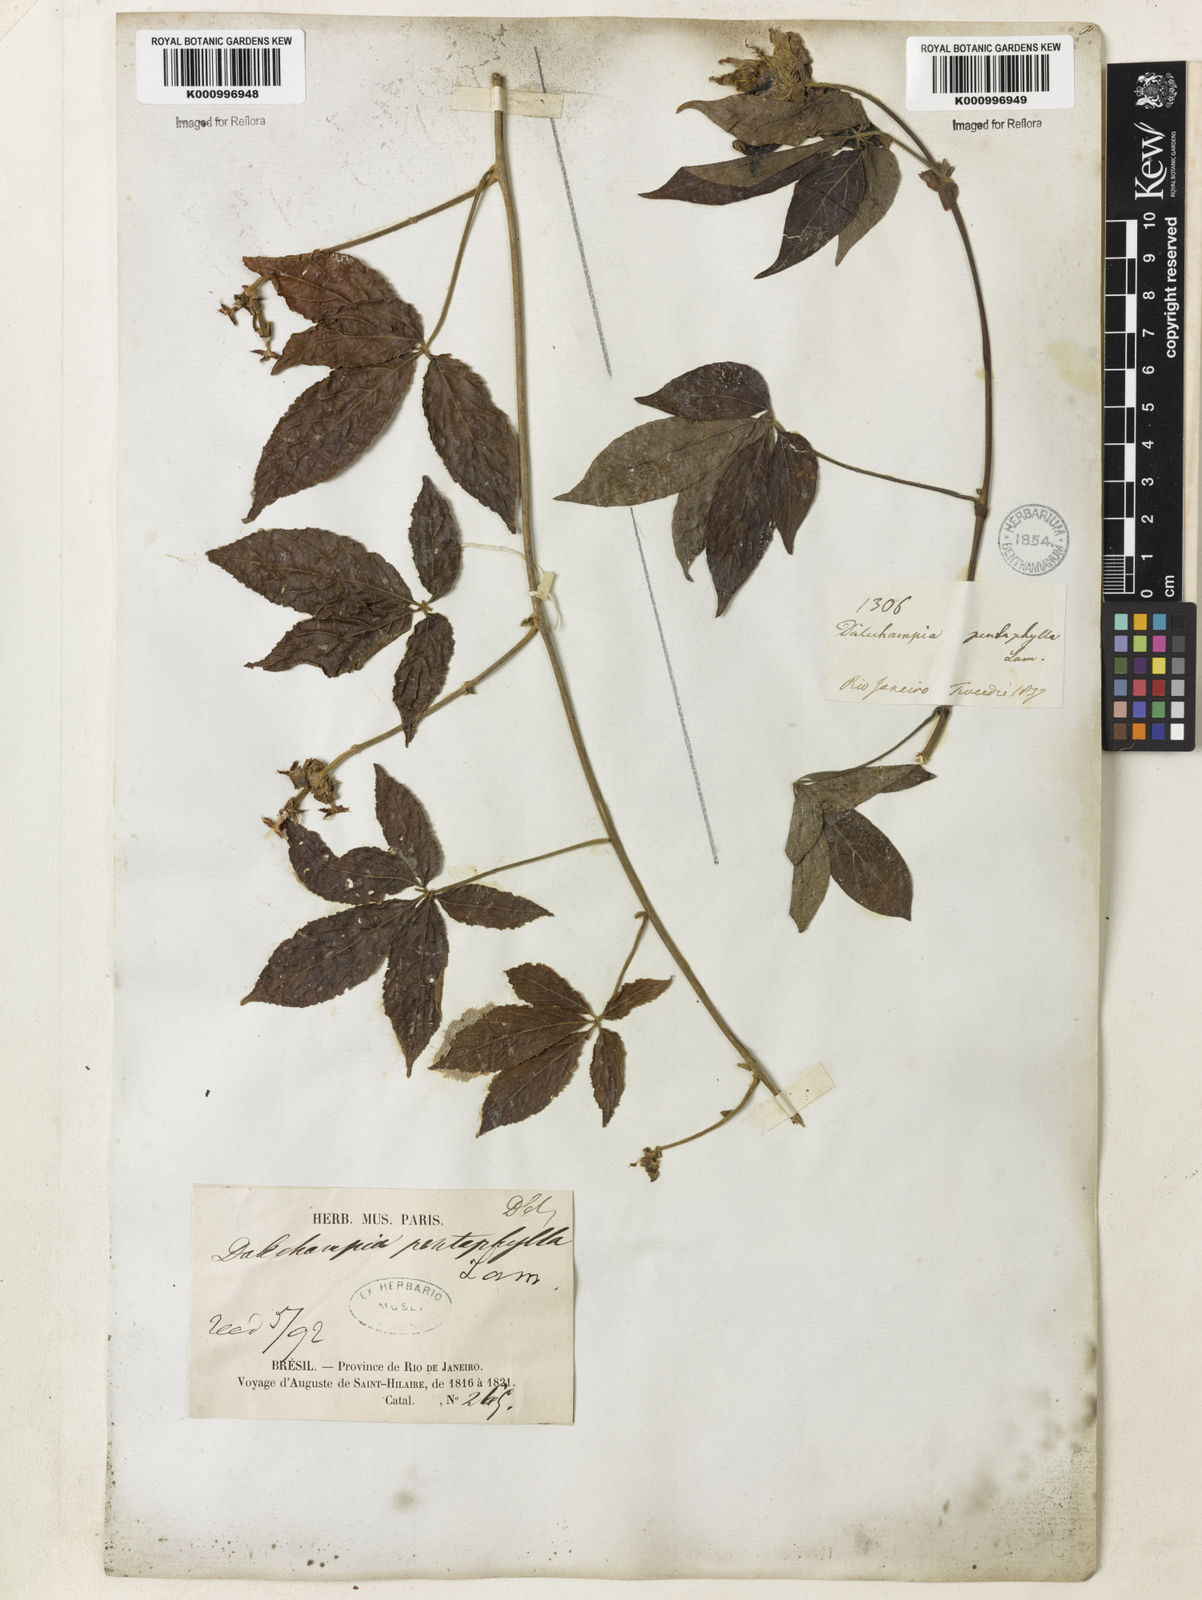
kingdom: Plantae
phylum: Tracheophyta
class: Magnoliopsida
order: Malpighiales
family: Euphorbiaceae
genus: Dalechampia
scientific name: Dalechampia pentaphylla
